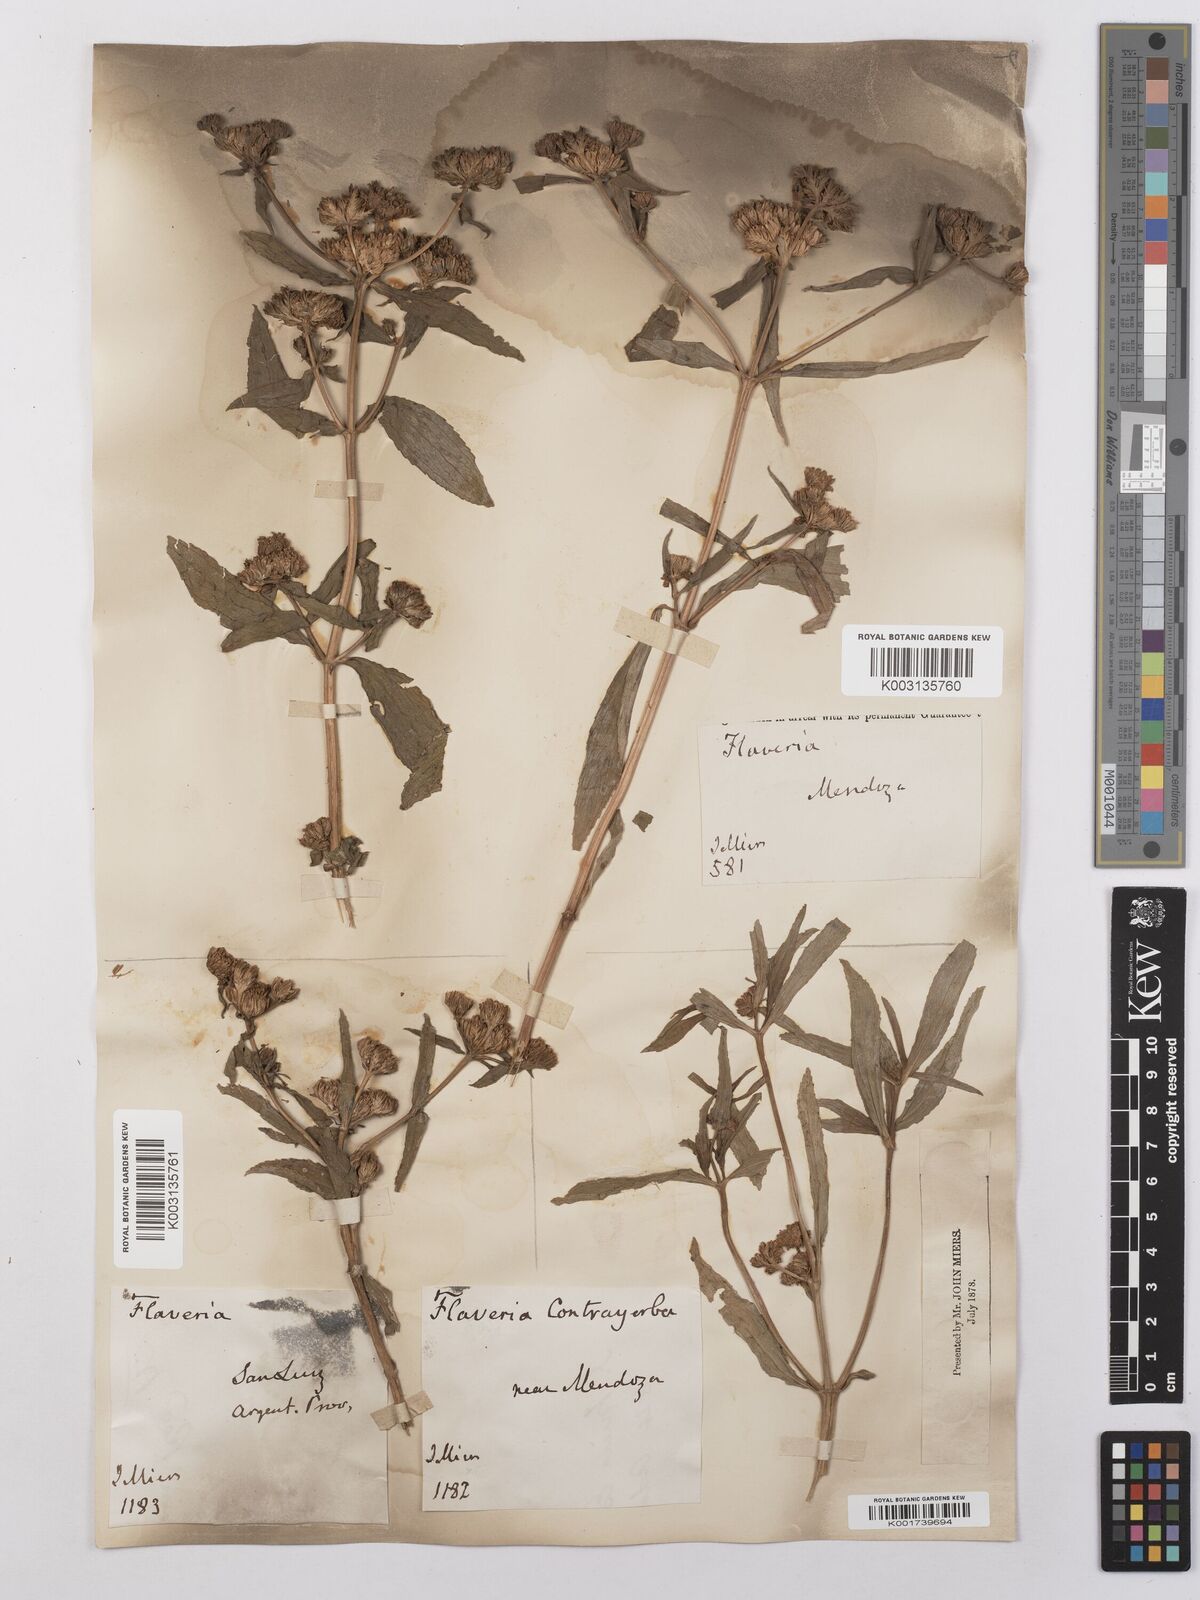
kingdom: Plantae
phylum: Tracheophyta
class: Magnoliopsida
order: Asterales
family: Asteraceae
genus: Flaveria
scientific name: Flaveria bidentis
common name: Coastal plain yellowtops
